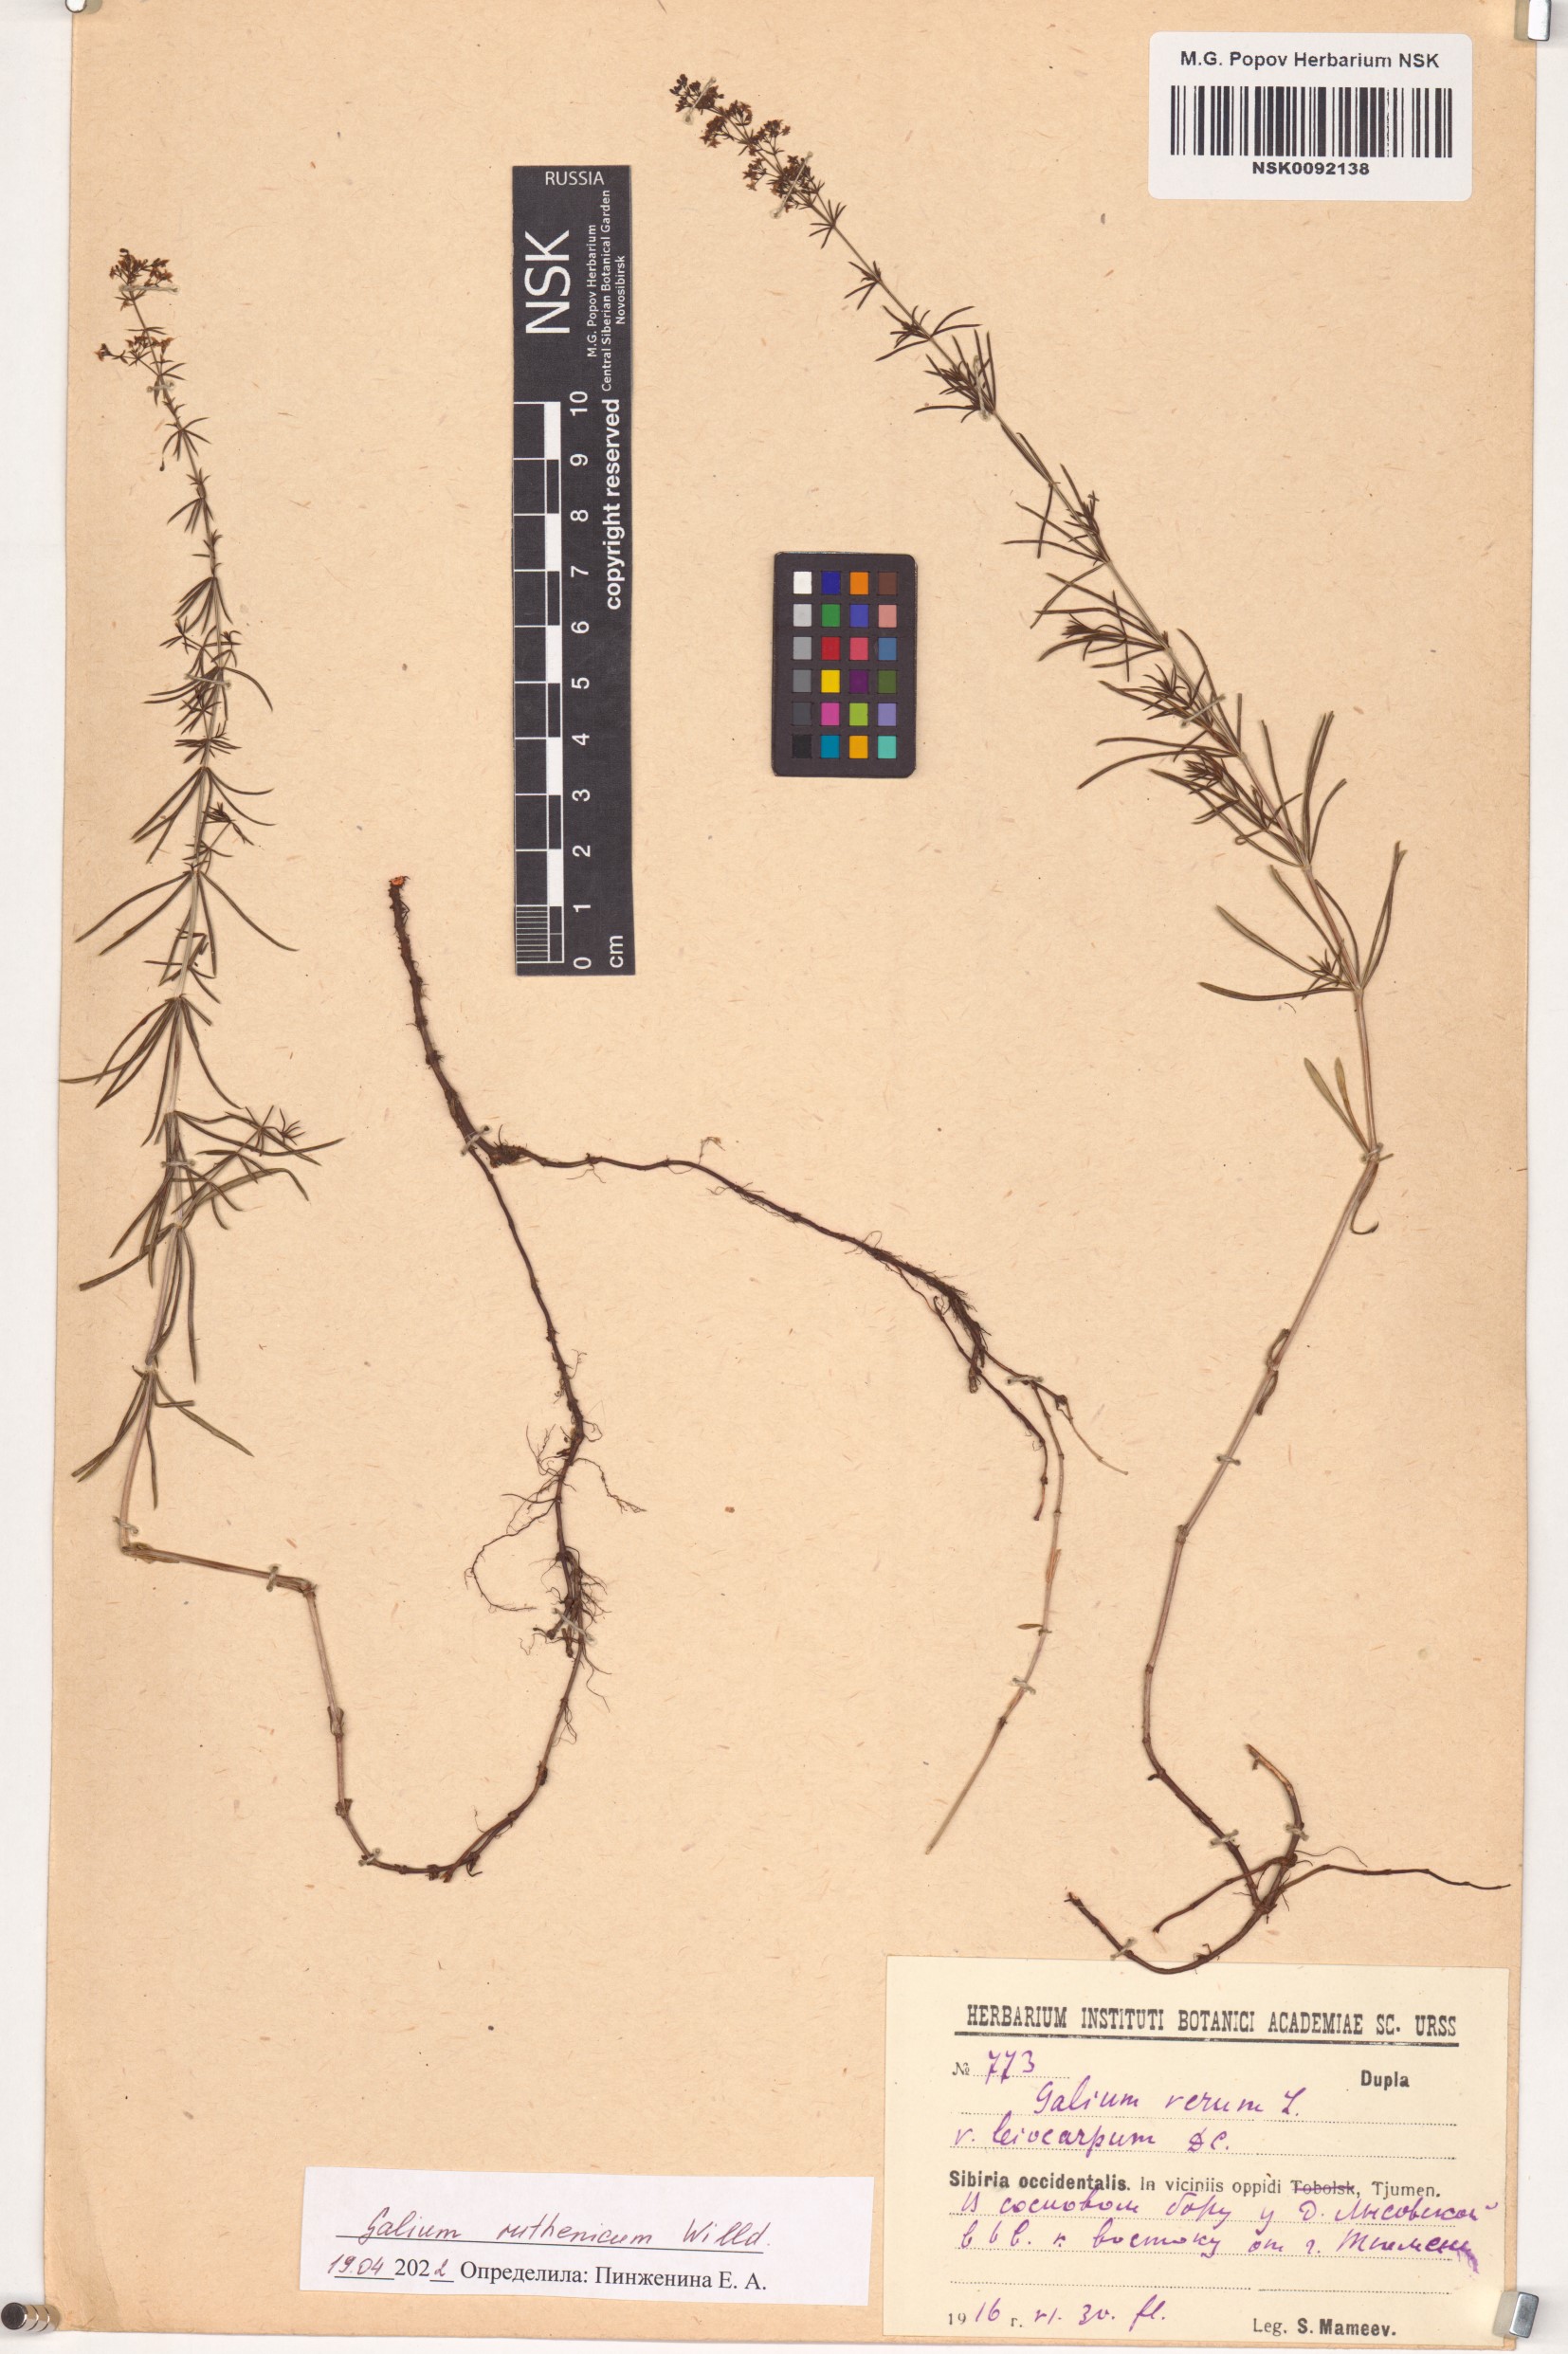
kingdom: Plantae
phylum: Tracheophyta
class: Magnoliopsida
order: Gentianales
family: Rubiaceae
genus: Galium
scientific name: Galium verum
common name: Lady's bedstraw
